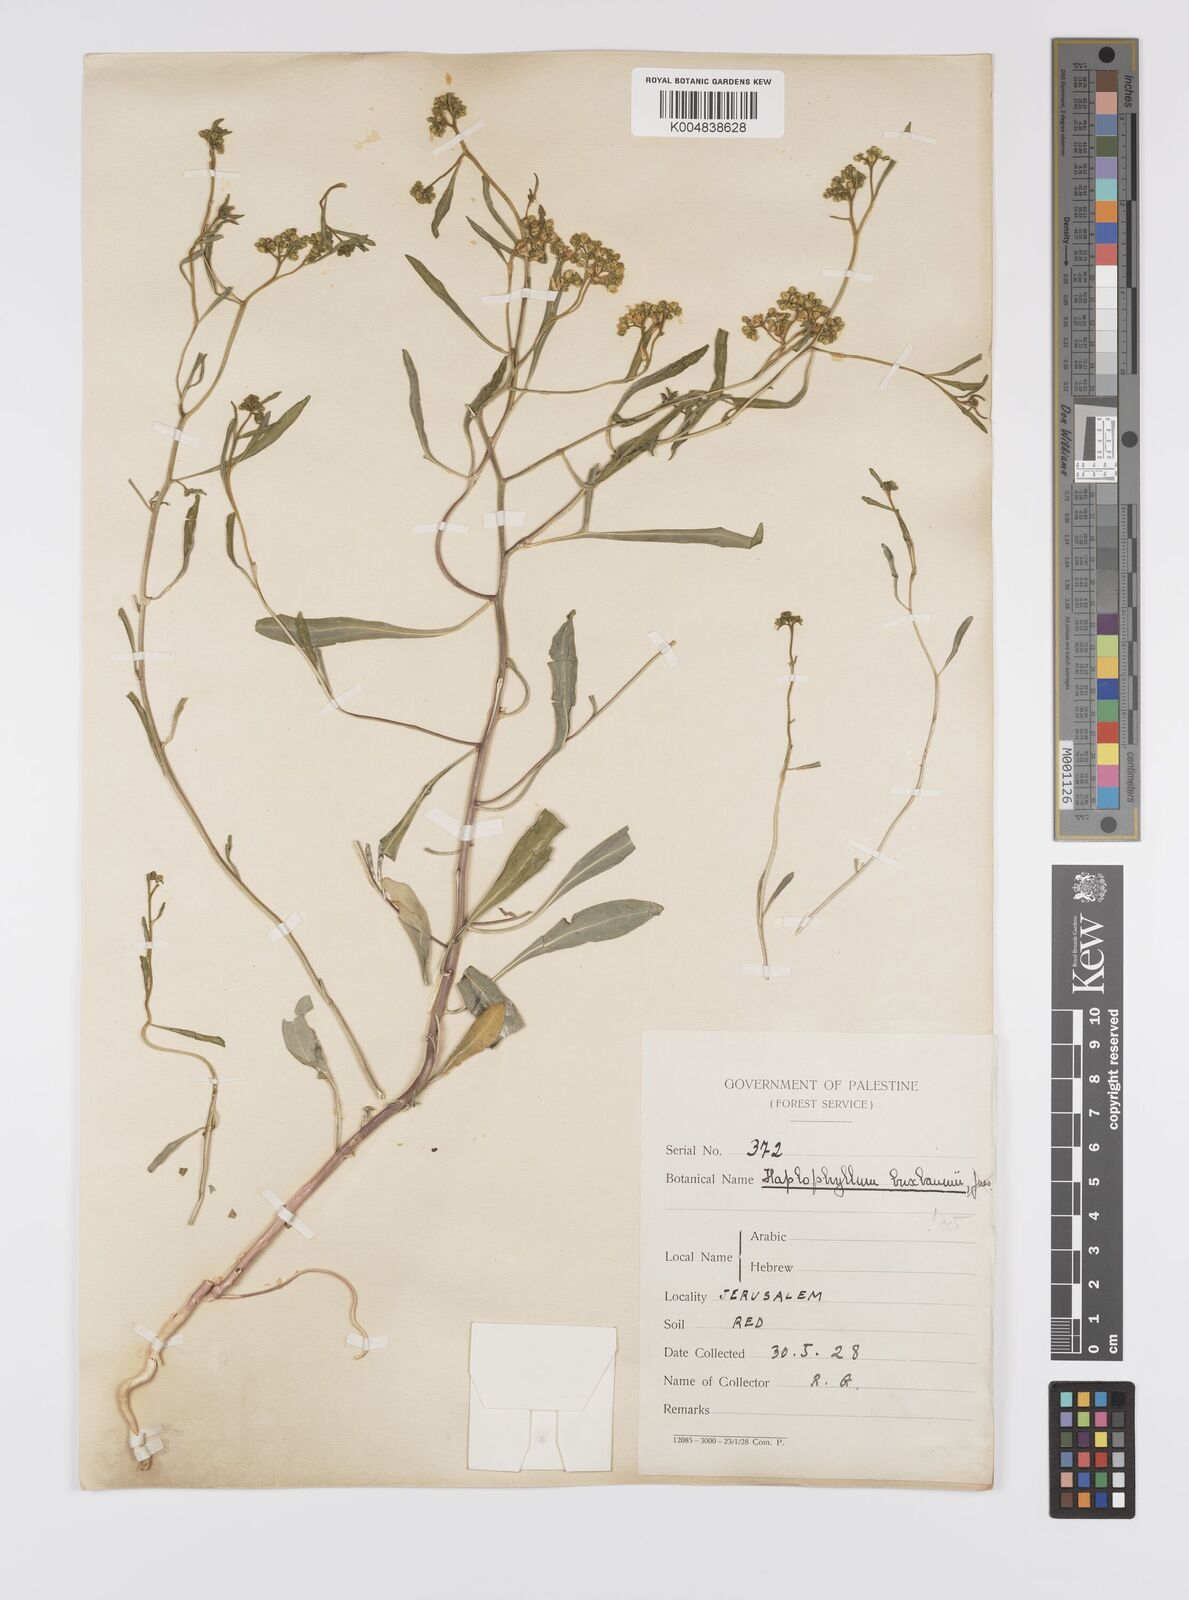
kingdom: Plantae
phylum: Tracheophyta
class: Magnoliopsida
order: Sapindales
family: Rutaceae
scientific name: Rutaceae
